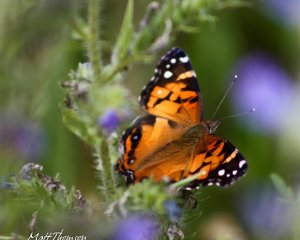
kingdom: Animalia
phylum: Arthropoda
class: Insecta
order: Lepidoptera
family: Nymphalidae
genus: Vanessa
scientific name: Vanessa virginiensis
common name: American Lady
